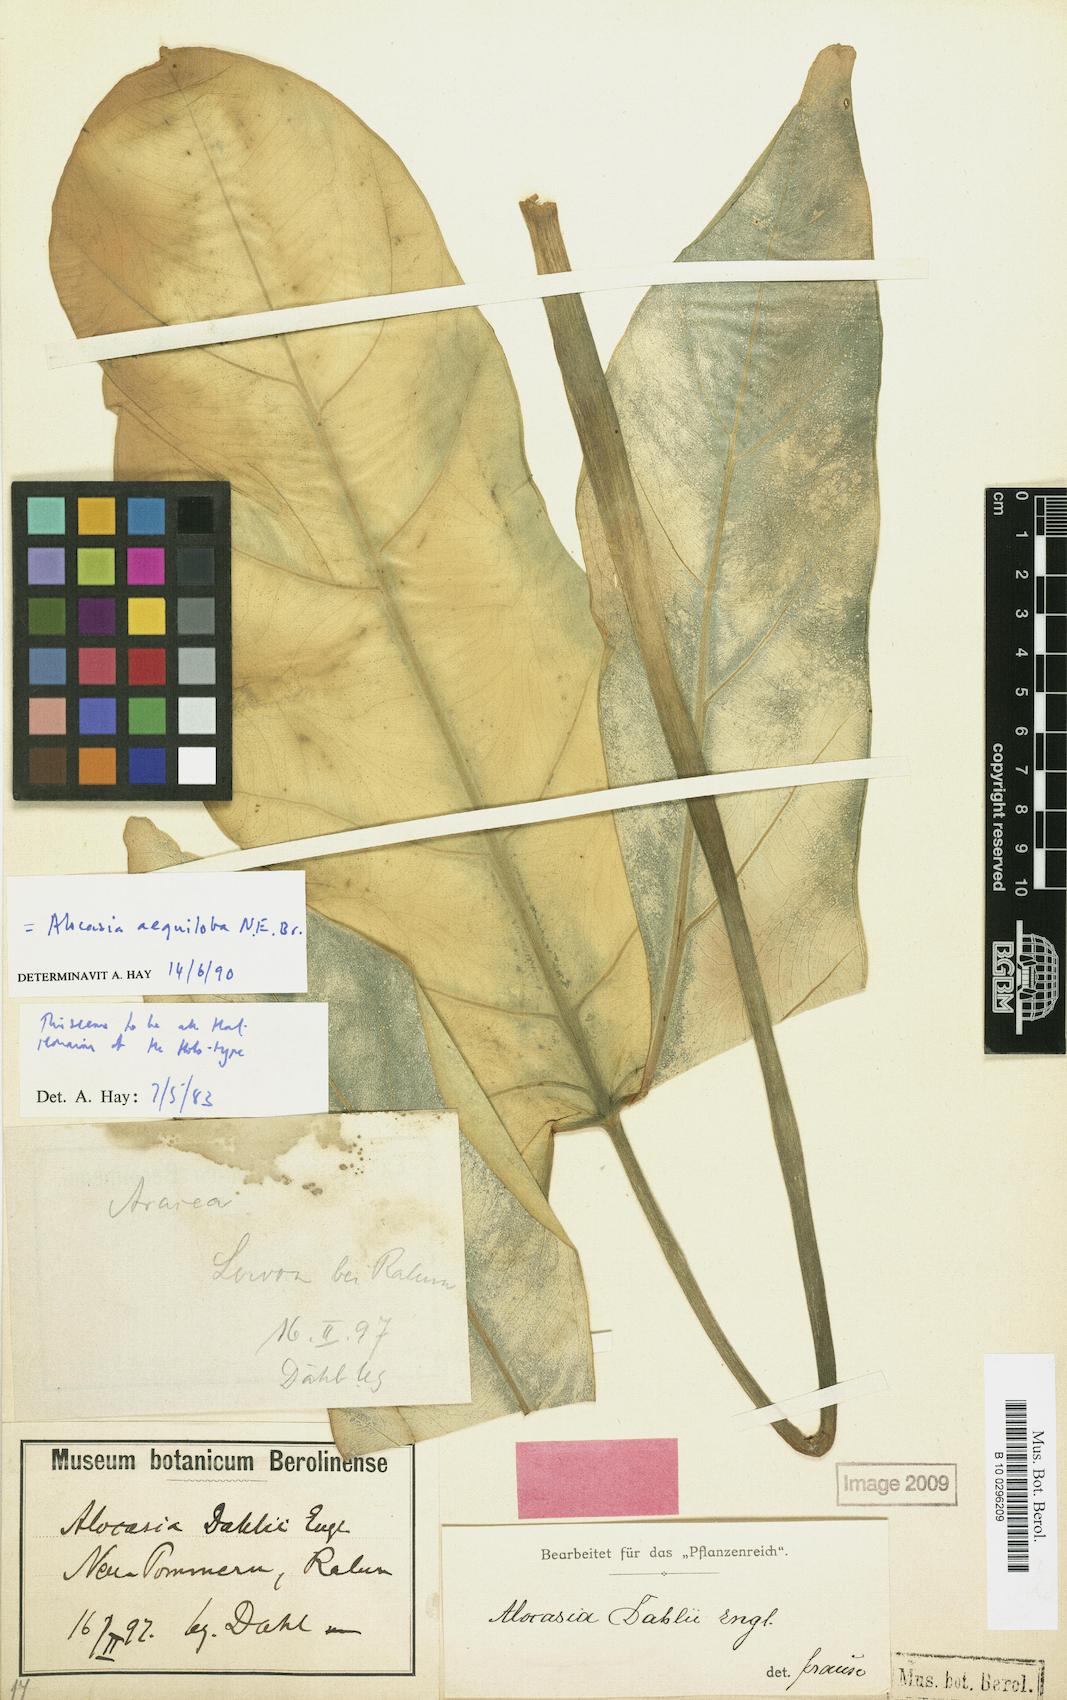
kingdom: Plantae
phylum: Tracheophyta
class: Liliopsida
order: Alismatales
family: Araceae
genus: Alocasia
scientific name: Alocasia aequiloba
